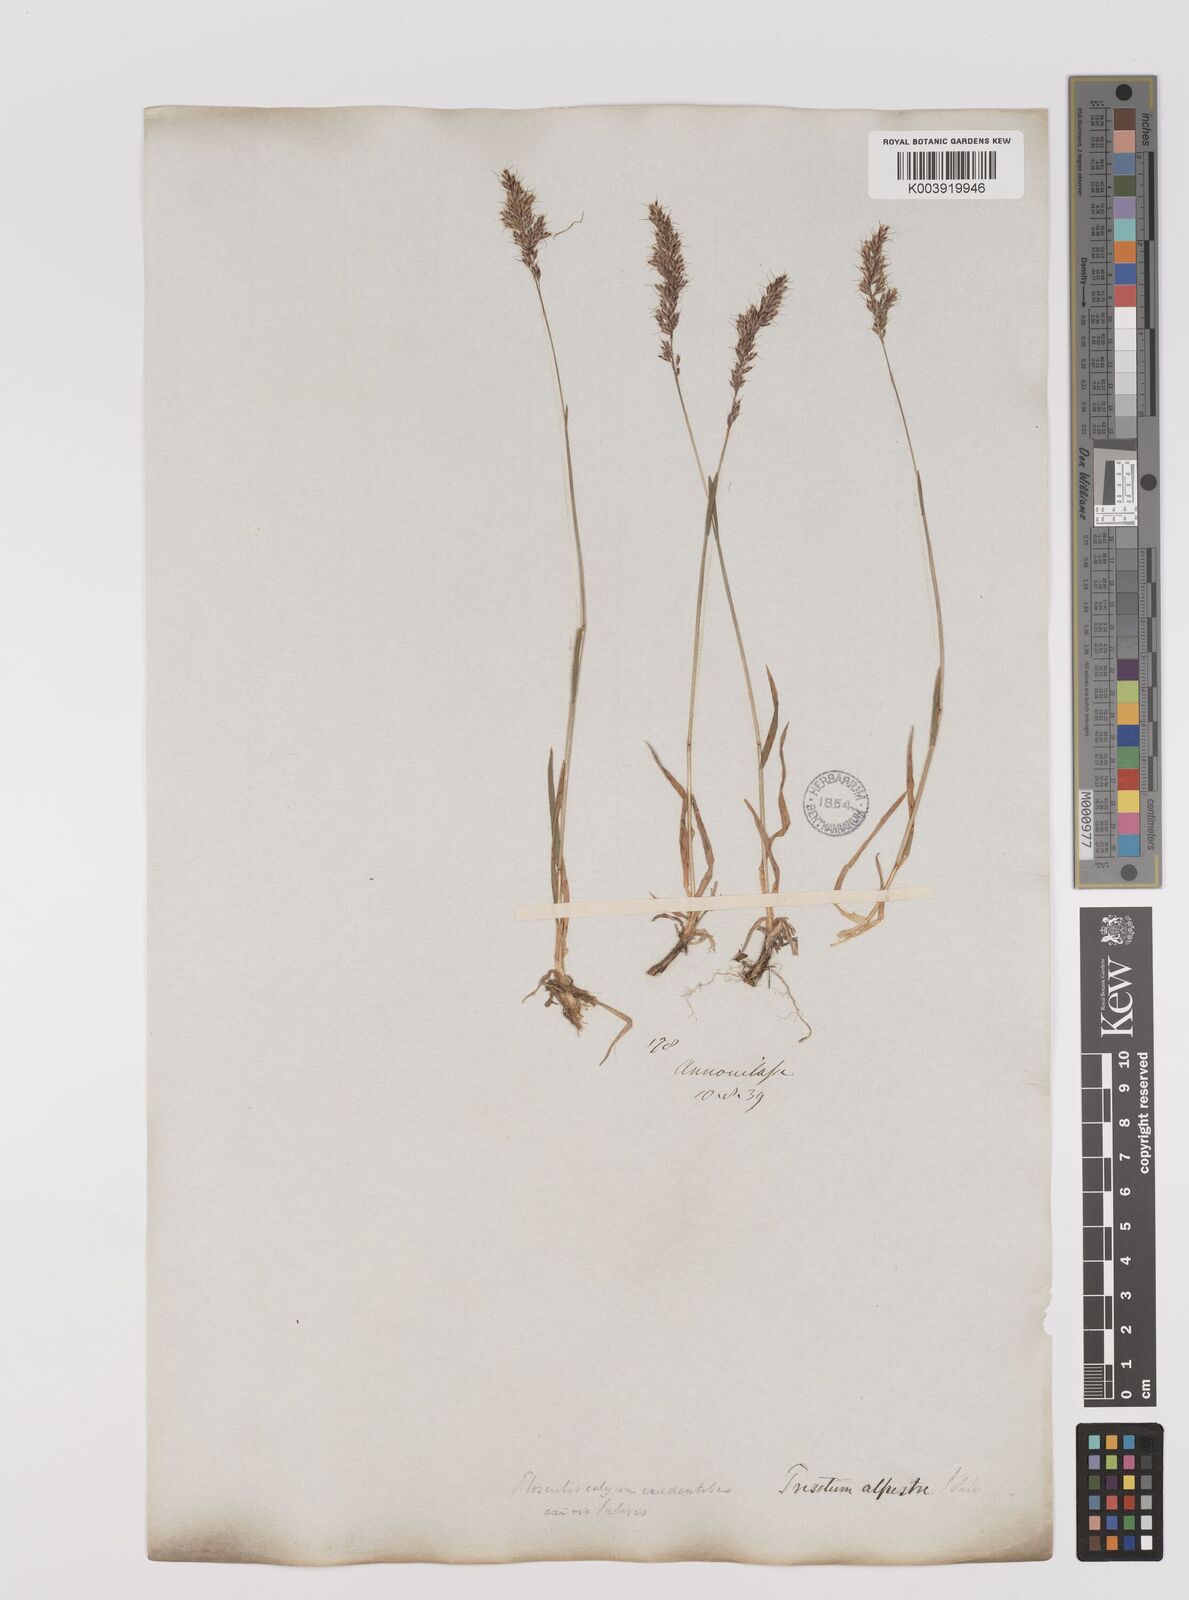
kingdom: Plantae
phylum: Tracheophyta
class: Liliopsida
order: Poales
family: Poaceae
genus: Trisetum
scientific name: Trisetum alpestre
